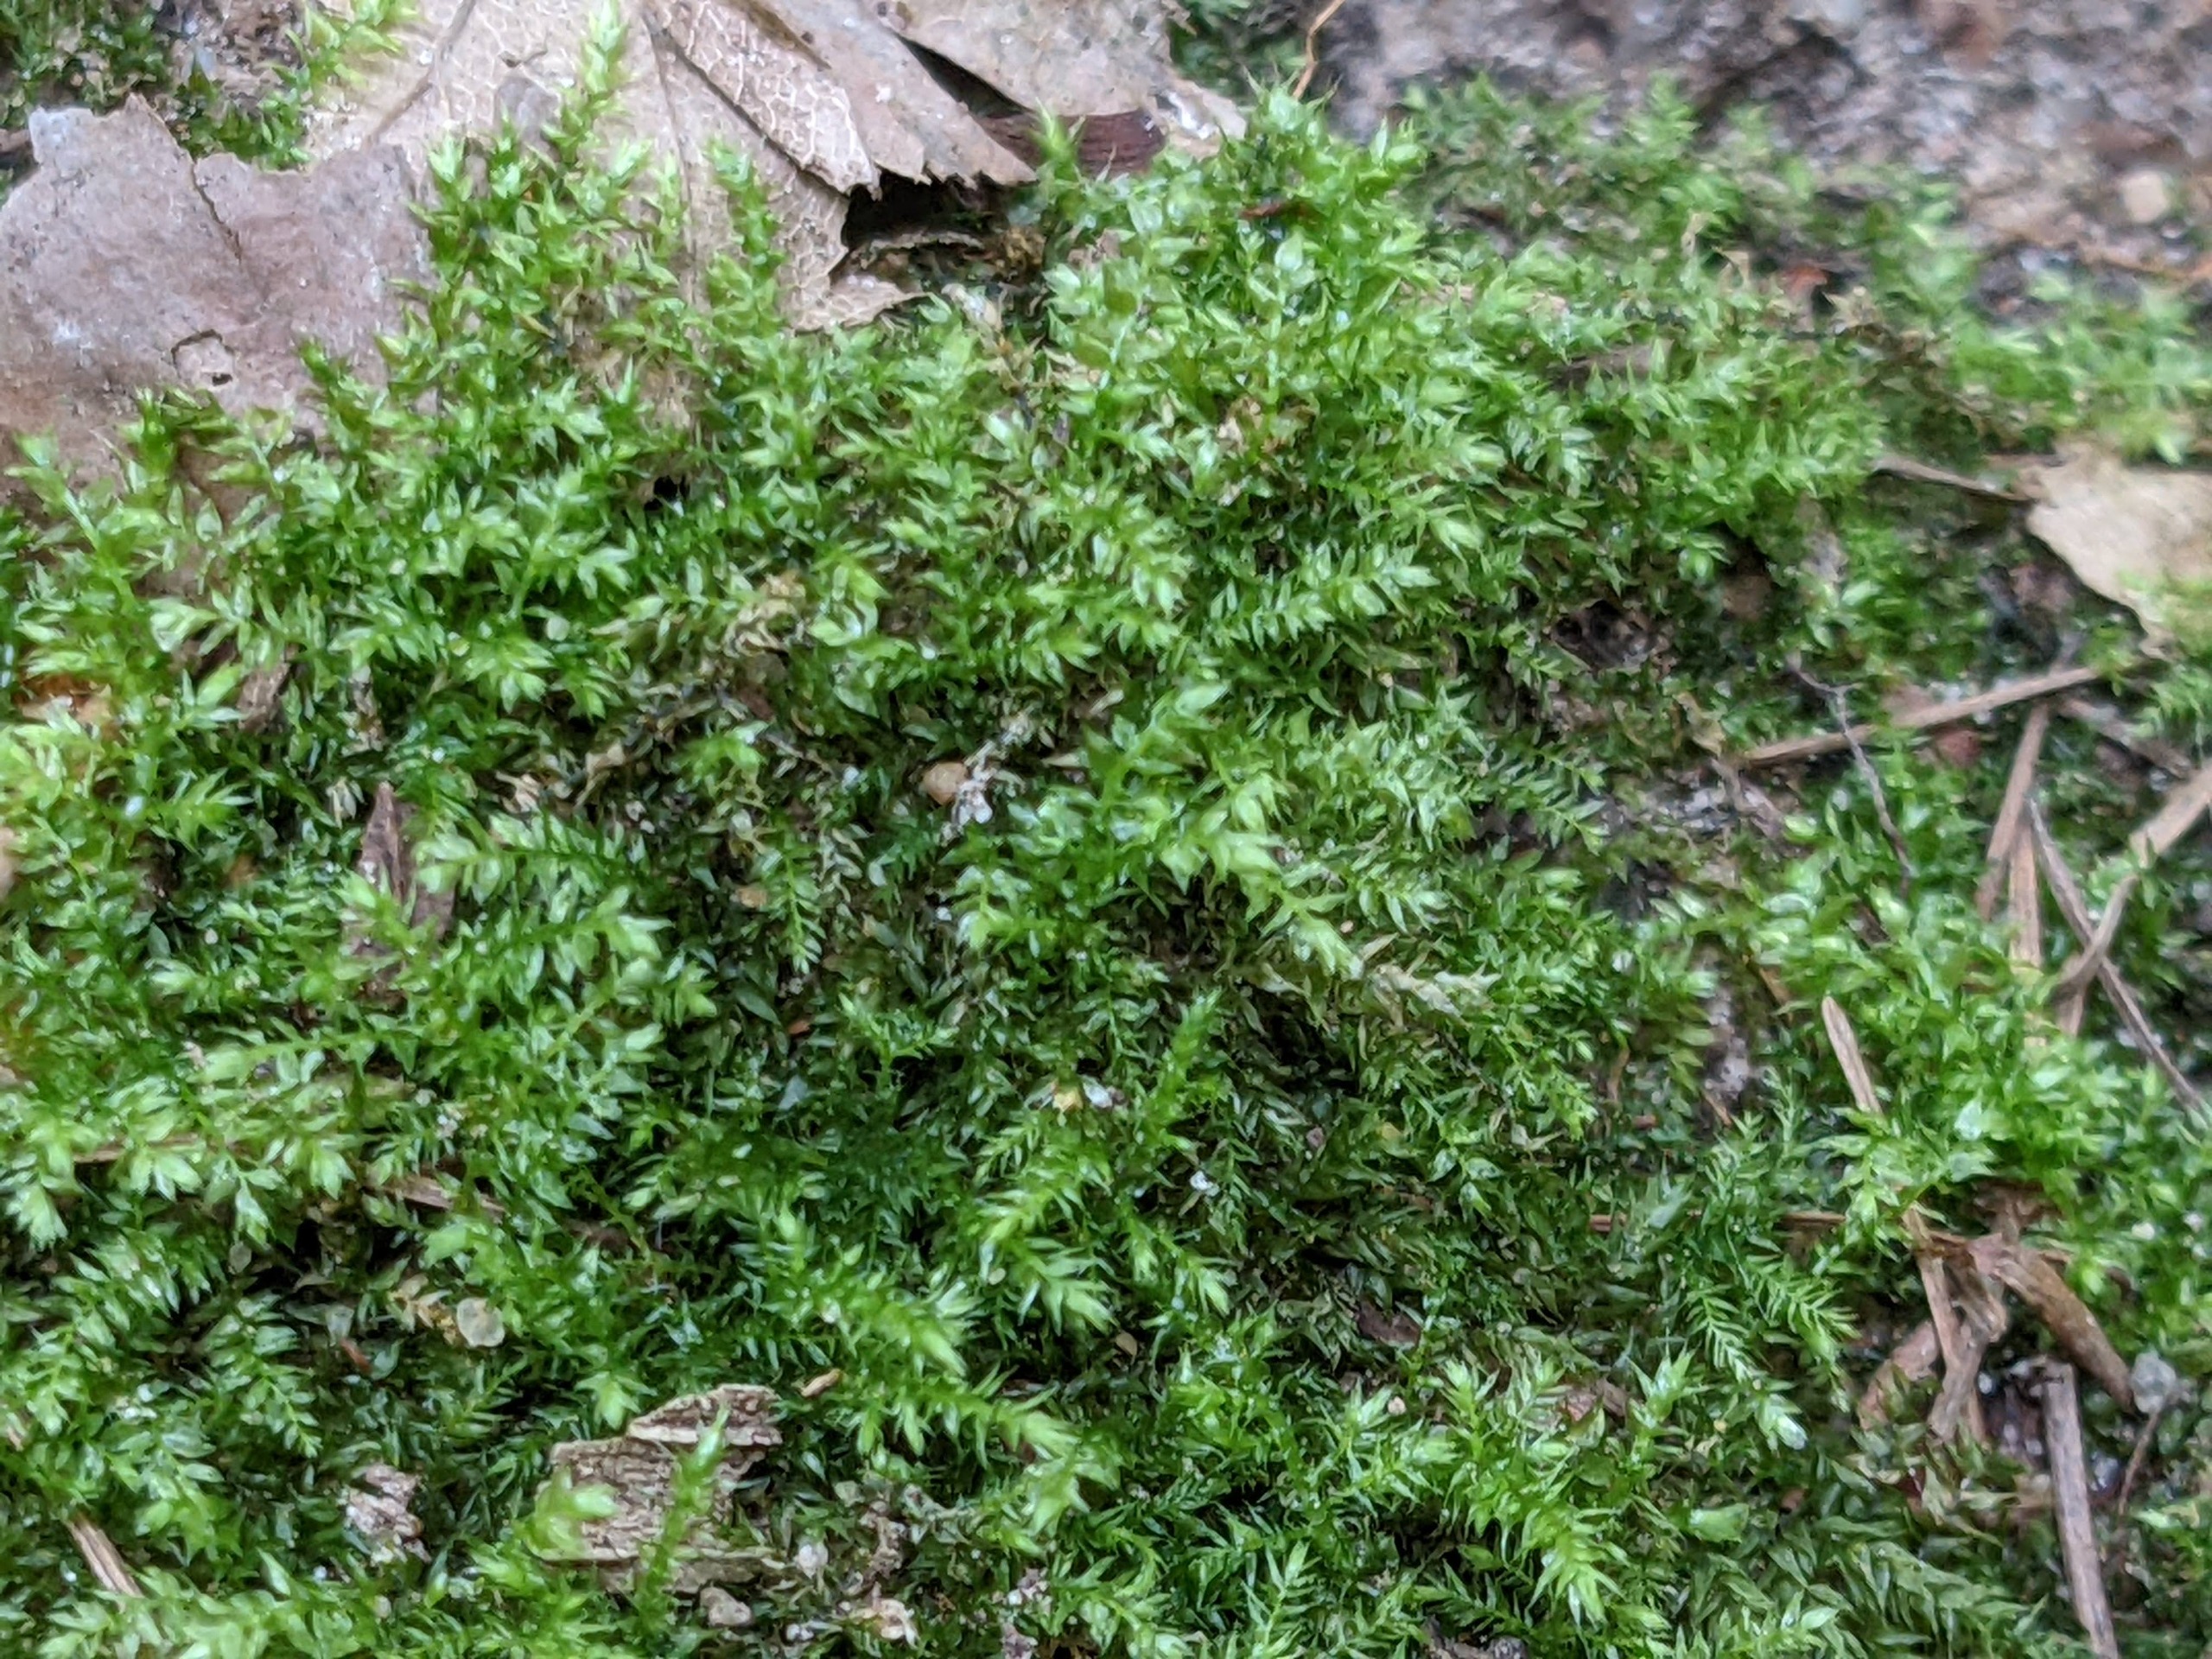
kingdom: Plantae
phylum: Bryophyta
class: Bryopsida
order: Hypnales
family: Brachytheciaceae
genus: Oxyrrhynchium
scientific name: Oxyrrhynchium hians
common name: Ler-vortetand
